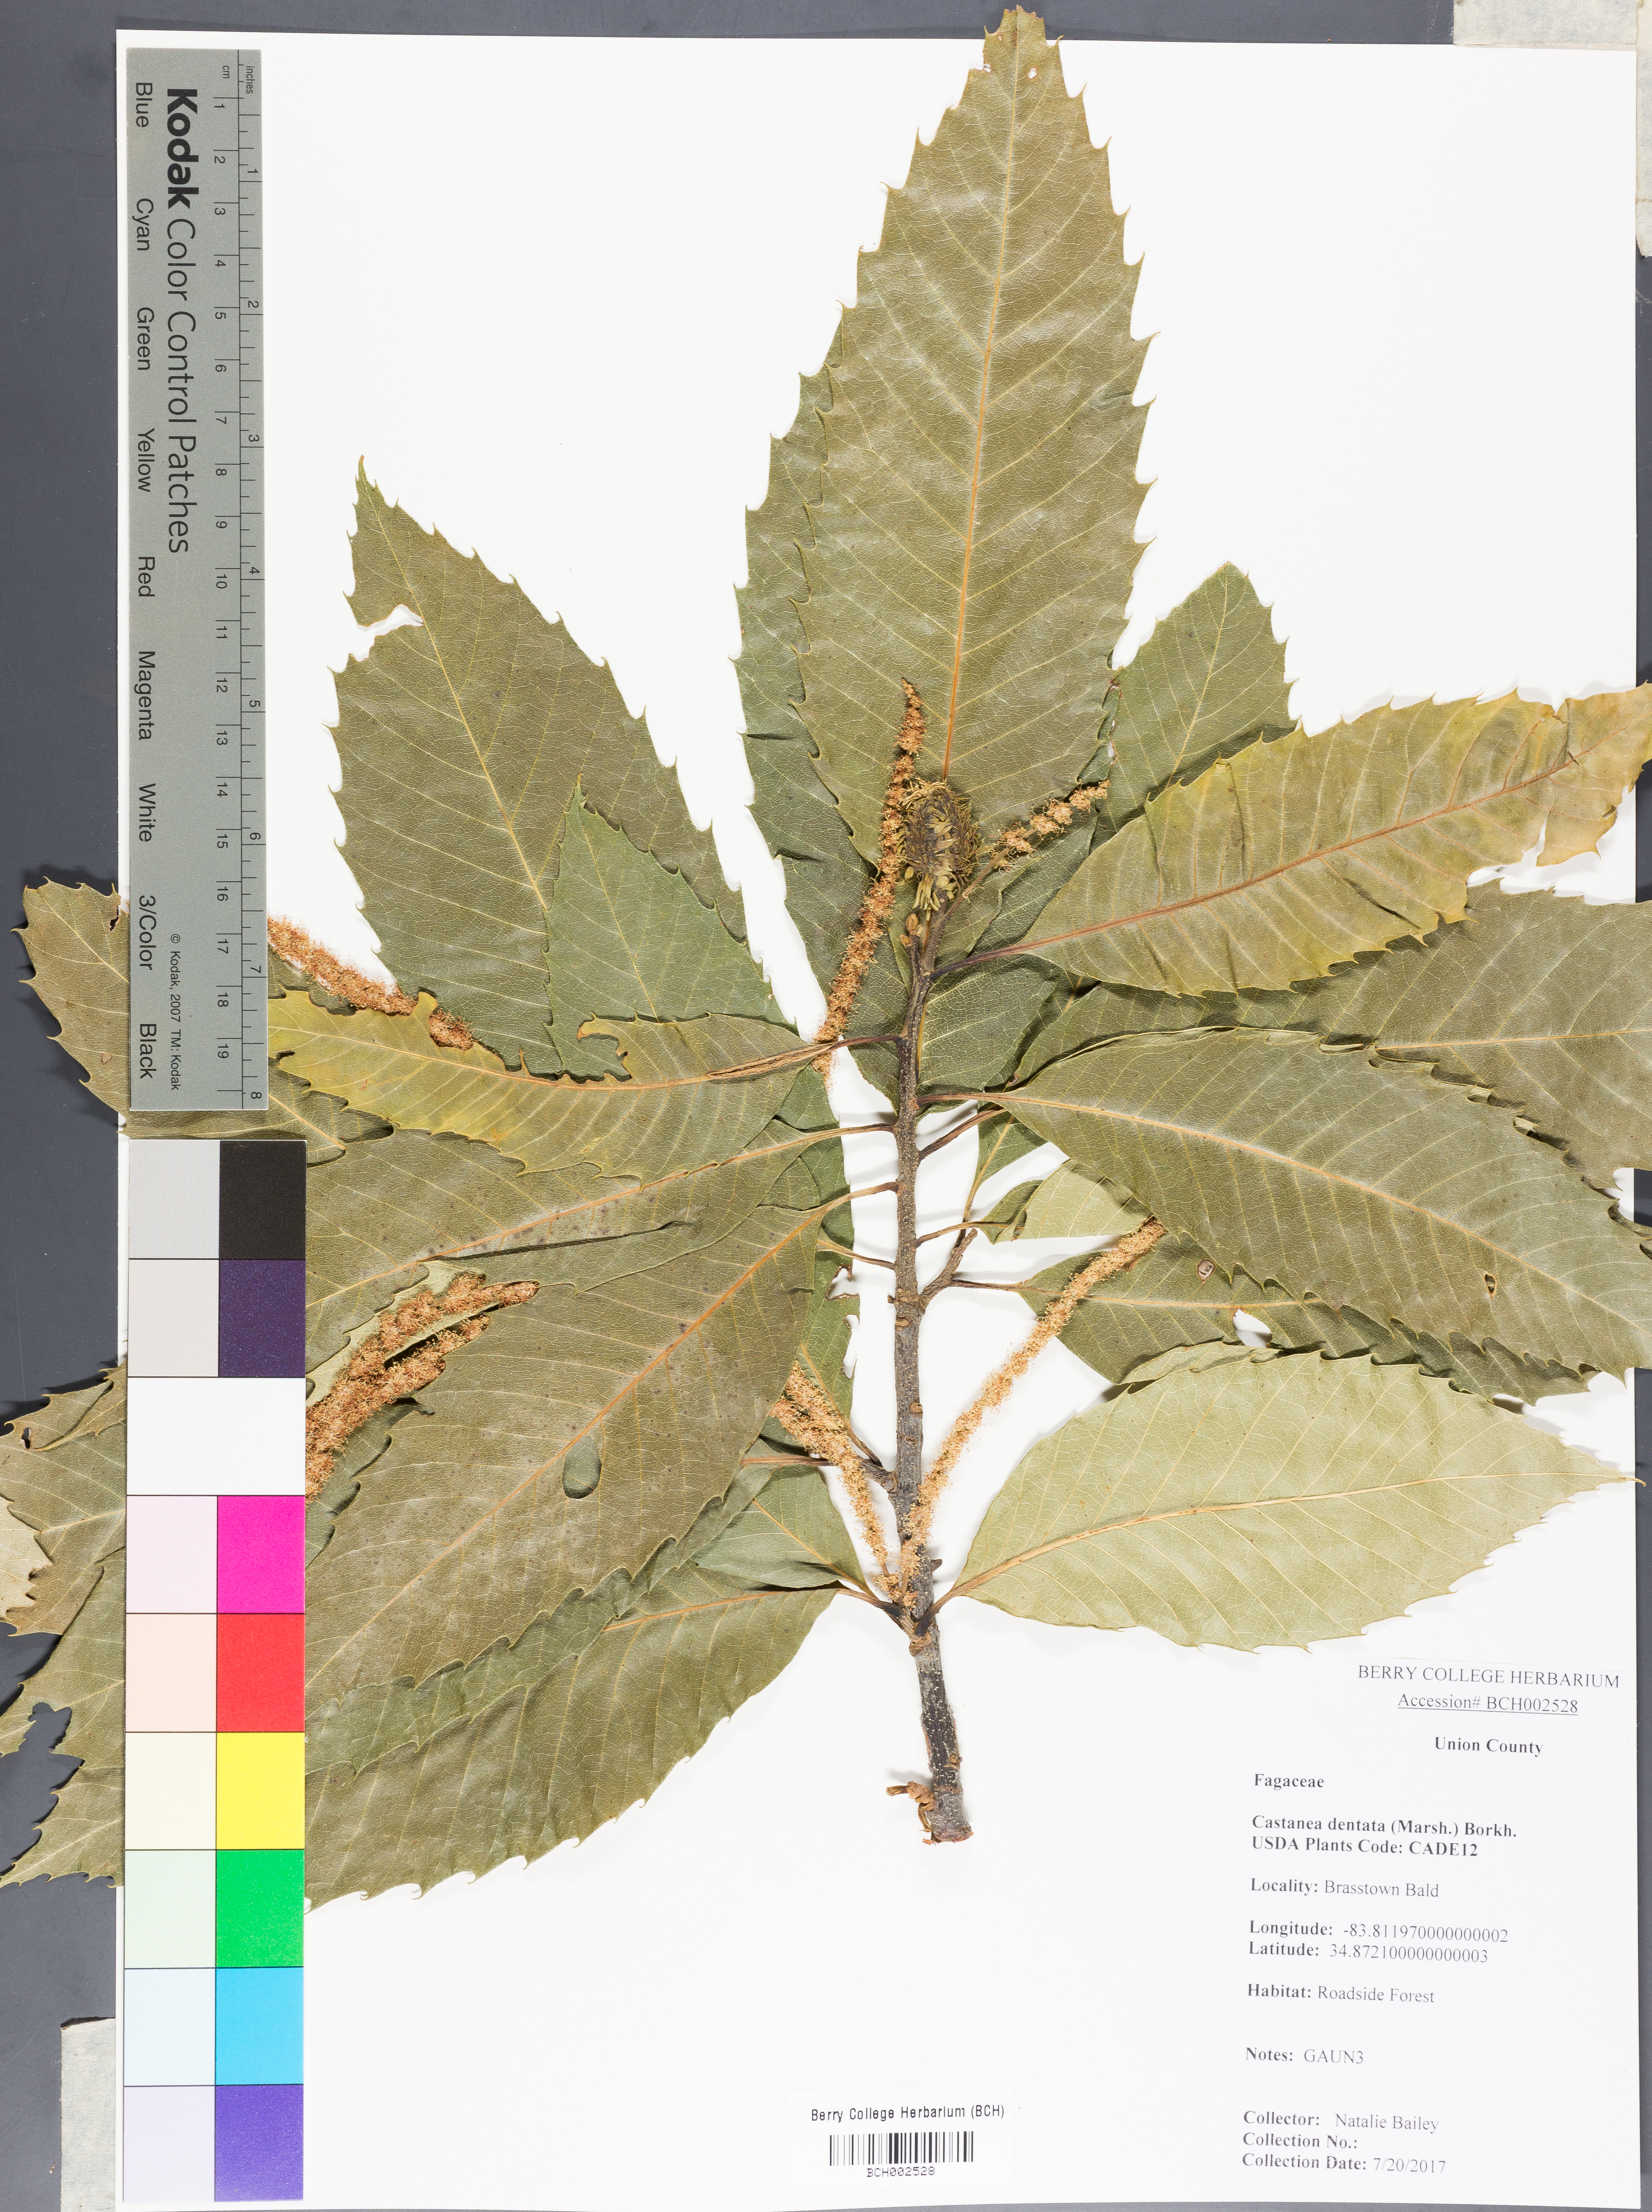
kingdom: Plantae
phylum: Tracheophyta
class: Magnoliopsida
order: Fagales
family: Fagaceae
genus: Castanea
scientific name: Castanea dentata
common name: American chestnut
